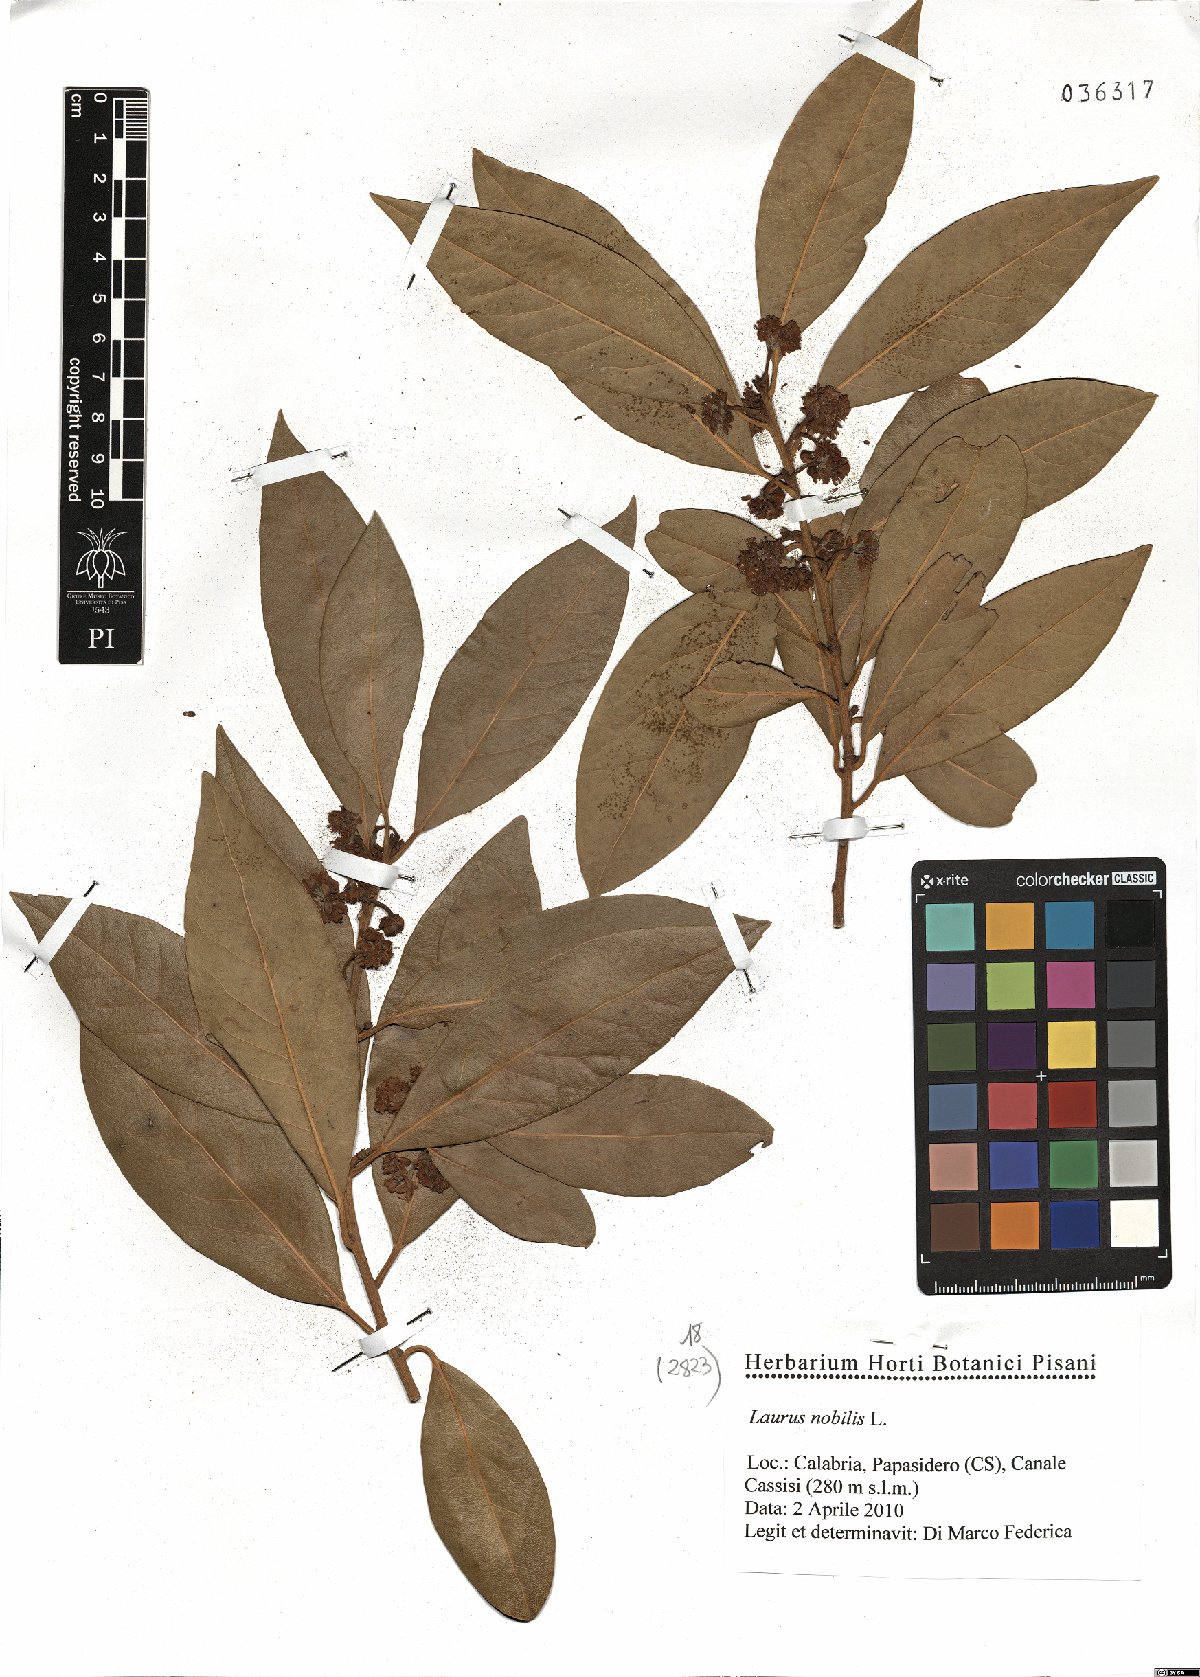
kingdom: Plantae
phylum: Tracheophyta
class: Magnoliopsida
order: Laurales
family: Lauraceae
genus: Laurus
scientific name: Laurus nobilis
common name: Bay
